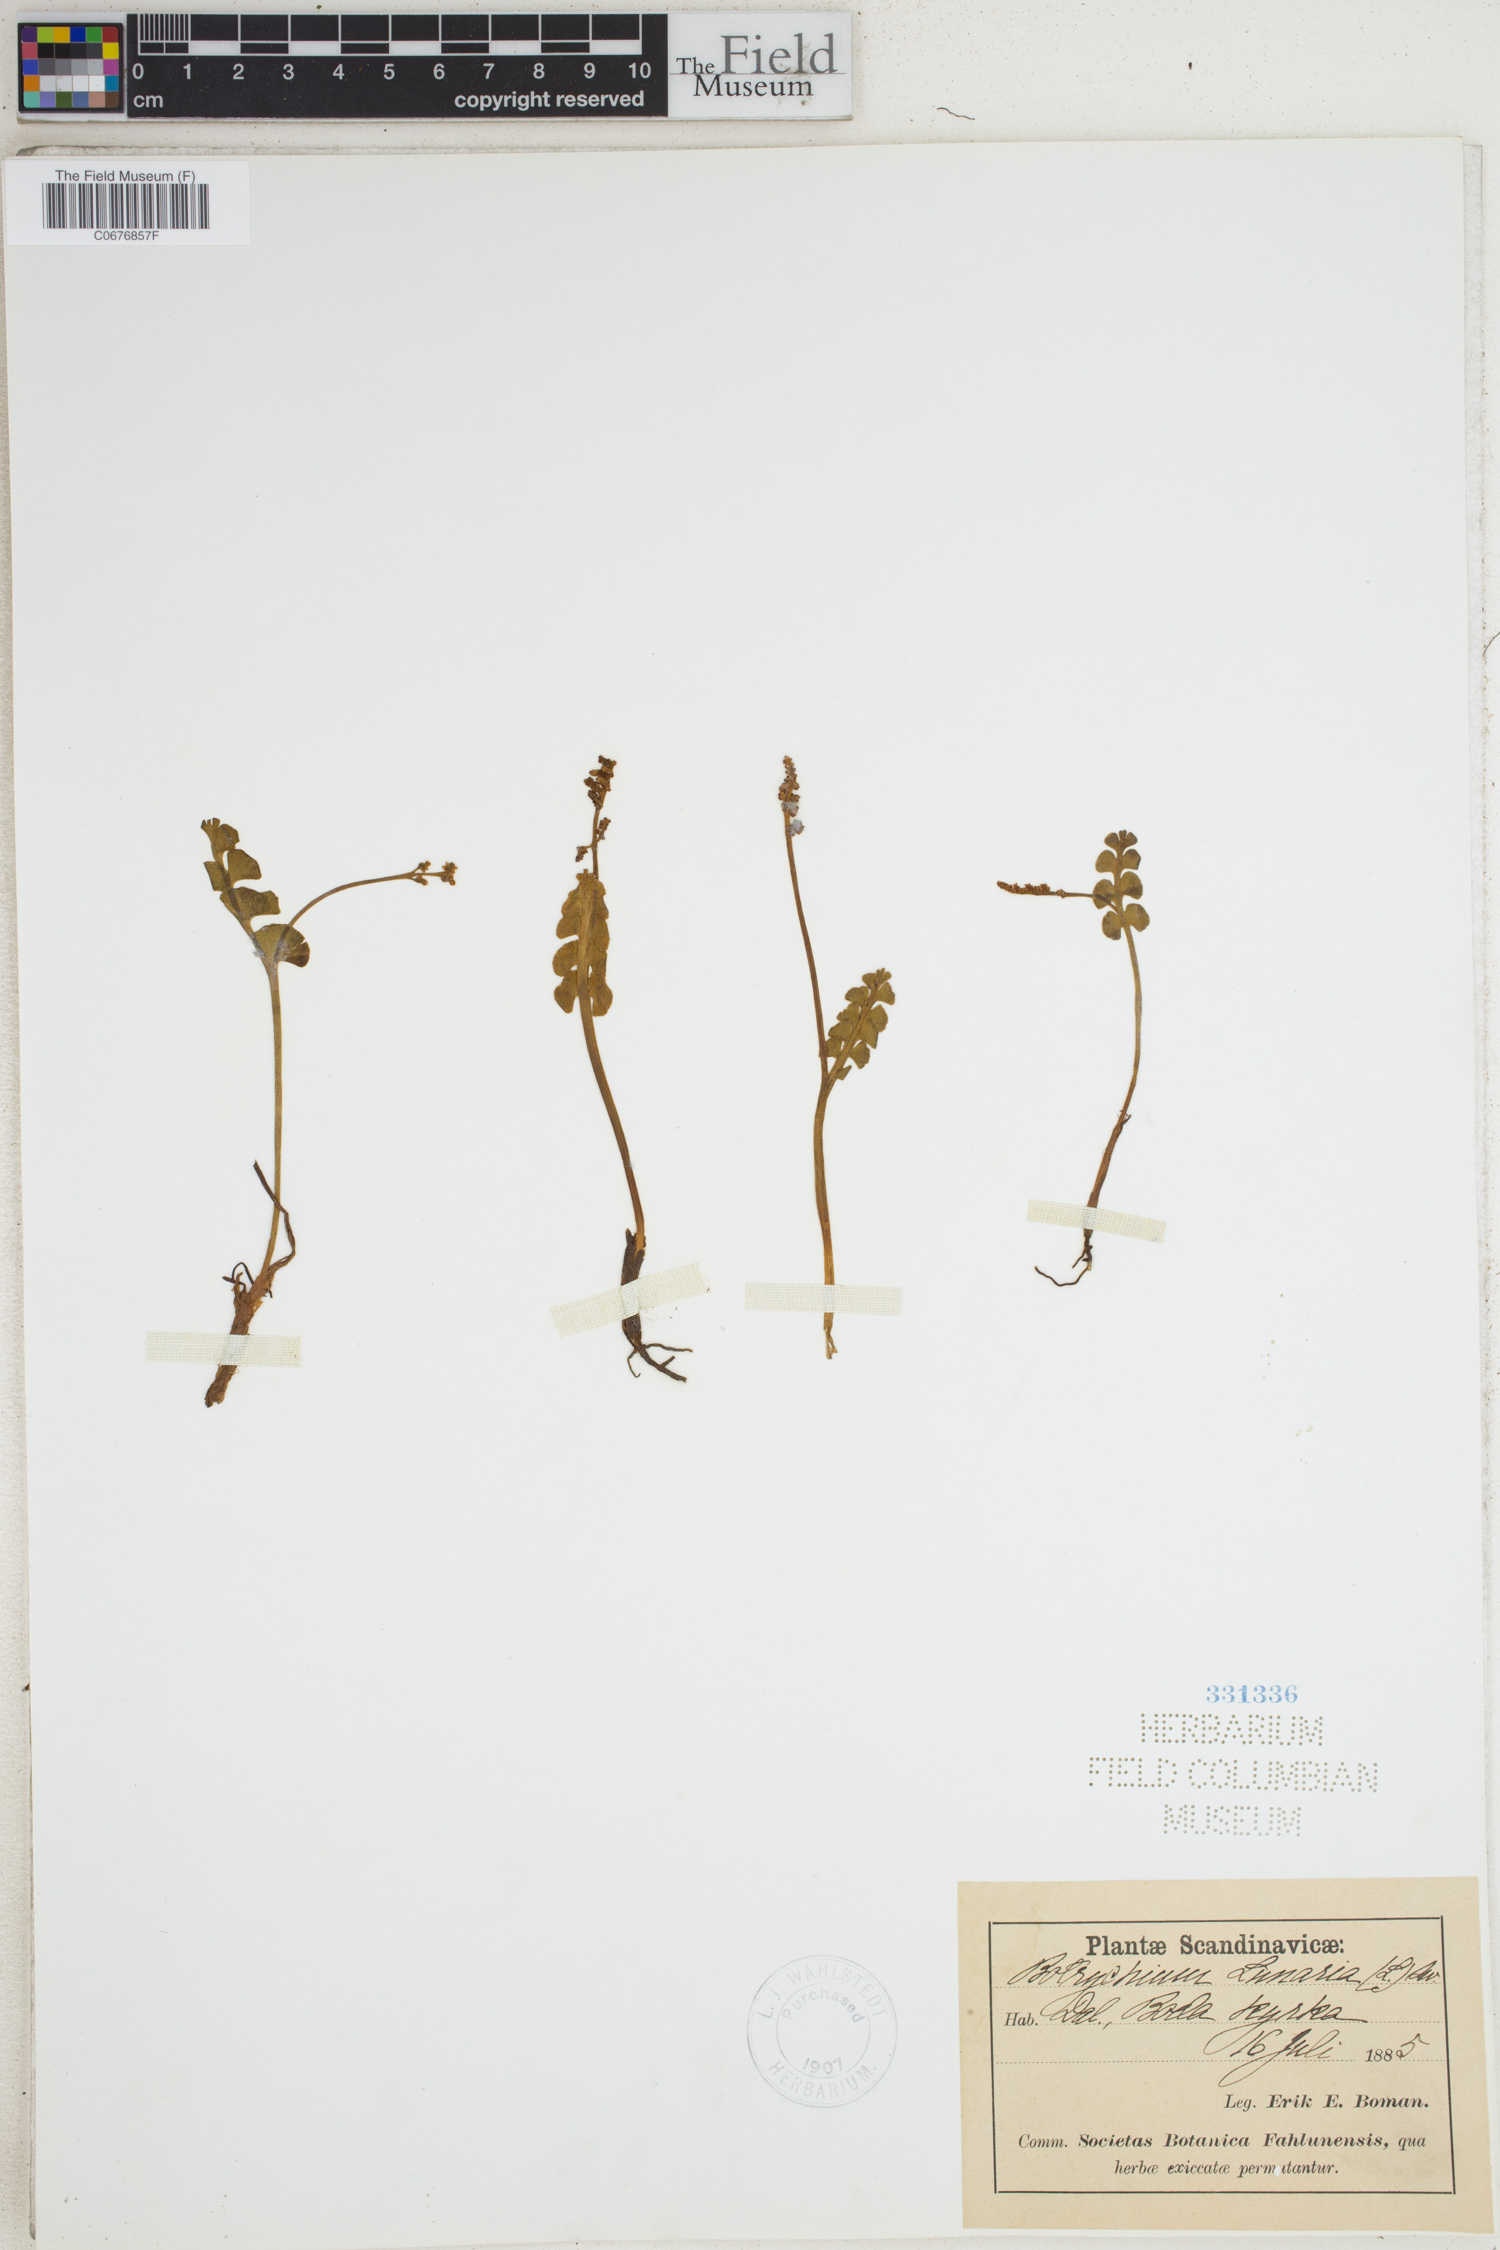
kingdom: Plantae
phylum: Tracheophyta
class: Polypodiopsida
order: Ophioglossales
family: Ophioglossaceae
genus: Botrychium
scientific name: Botrychium lunaria
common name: Moonwort
